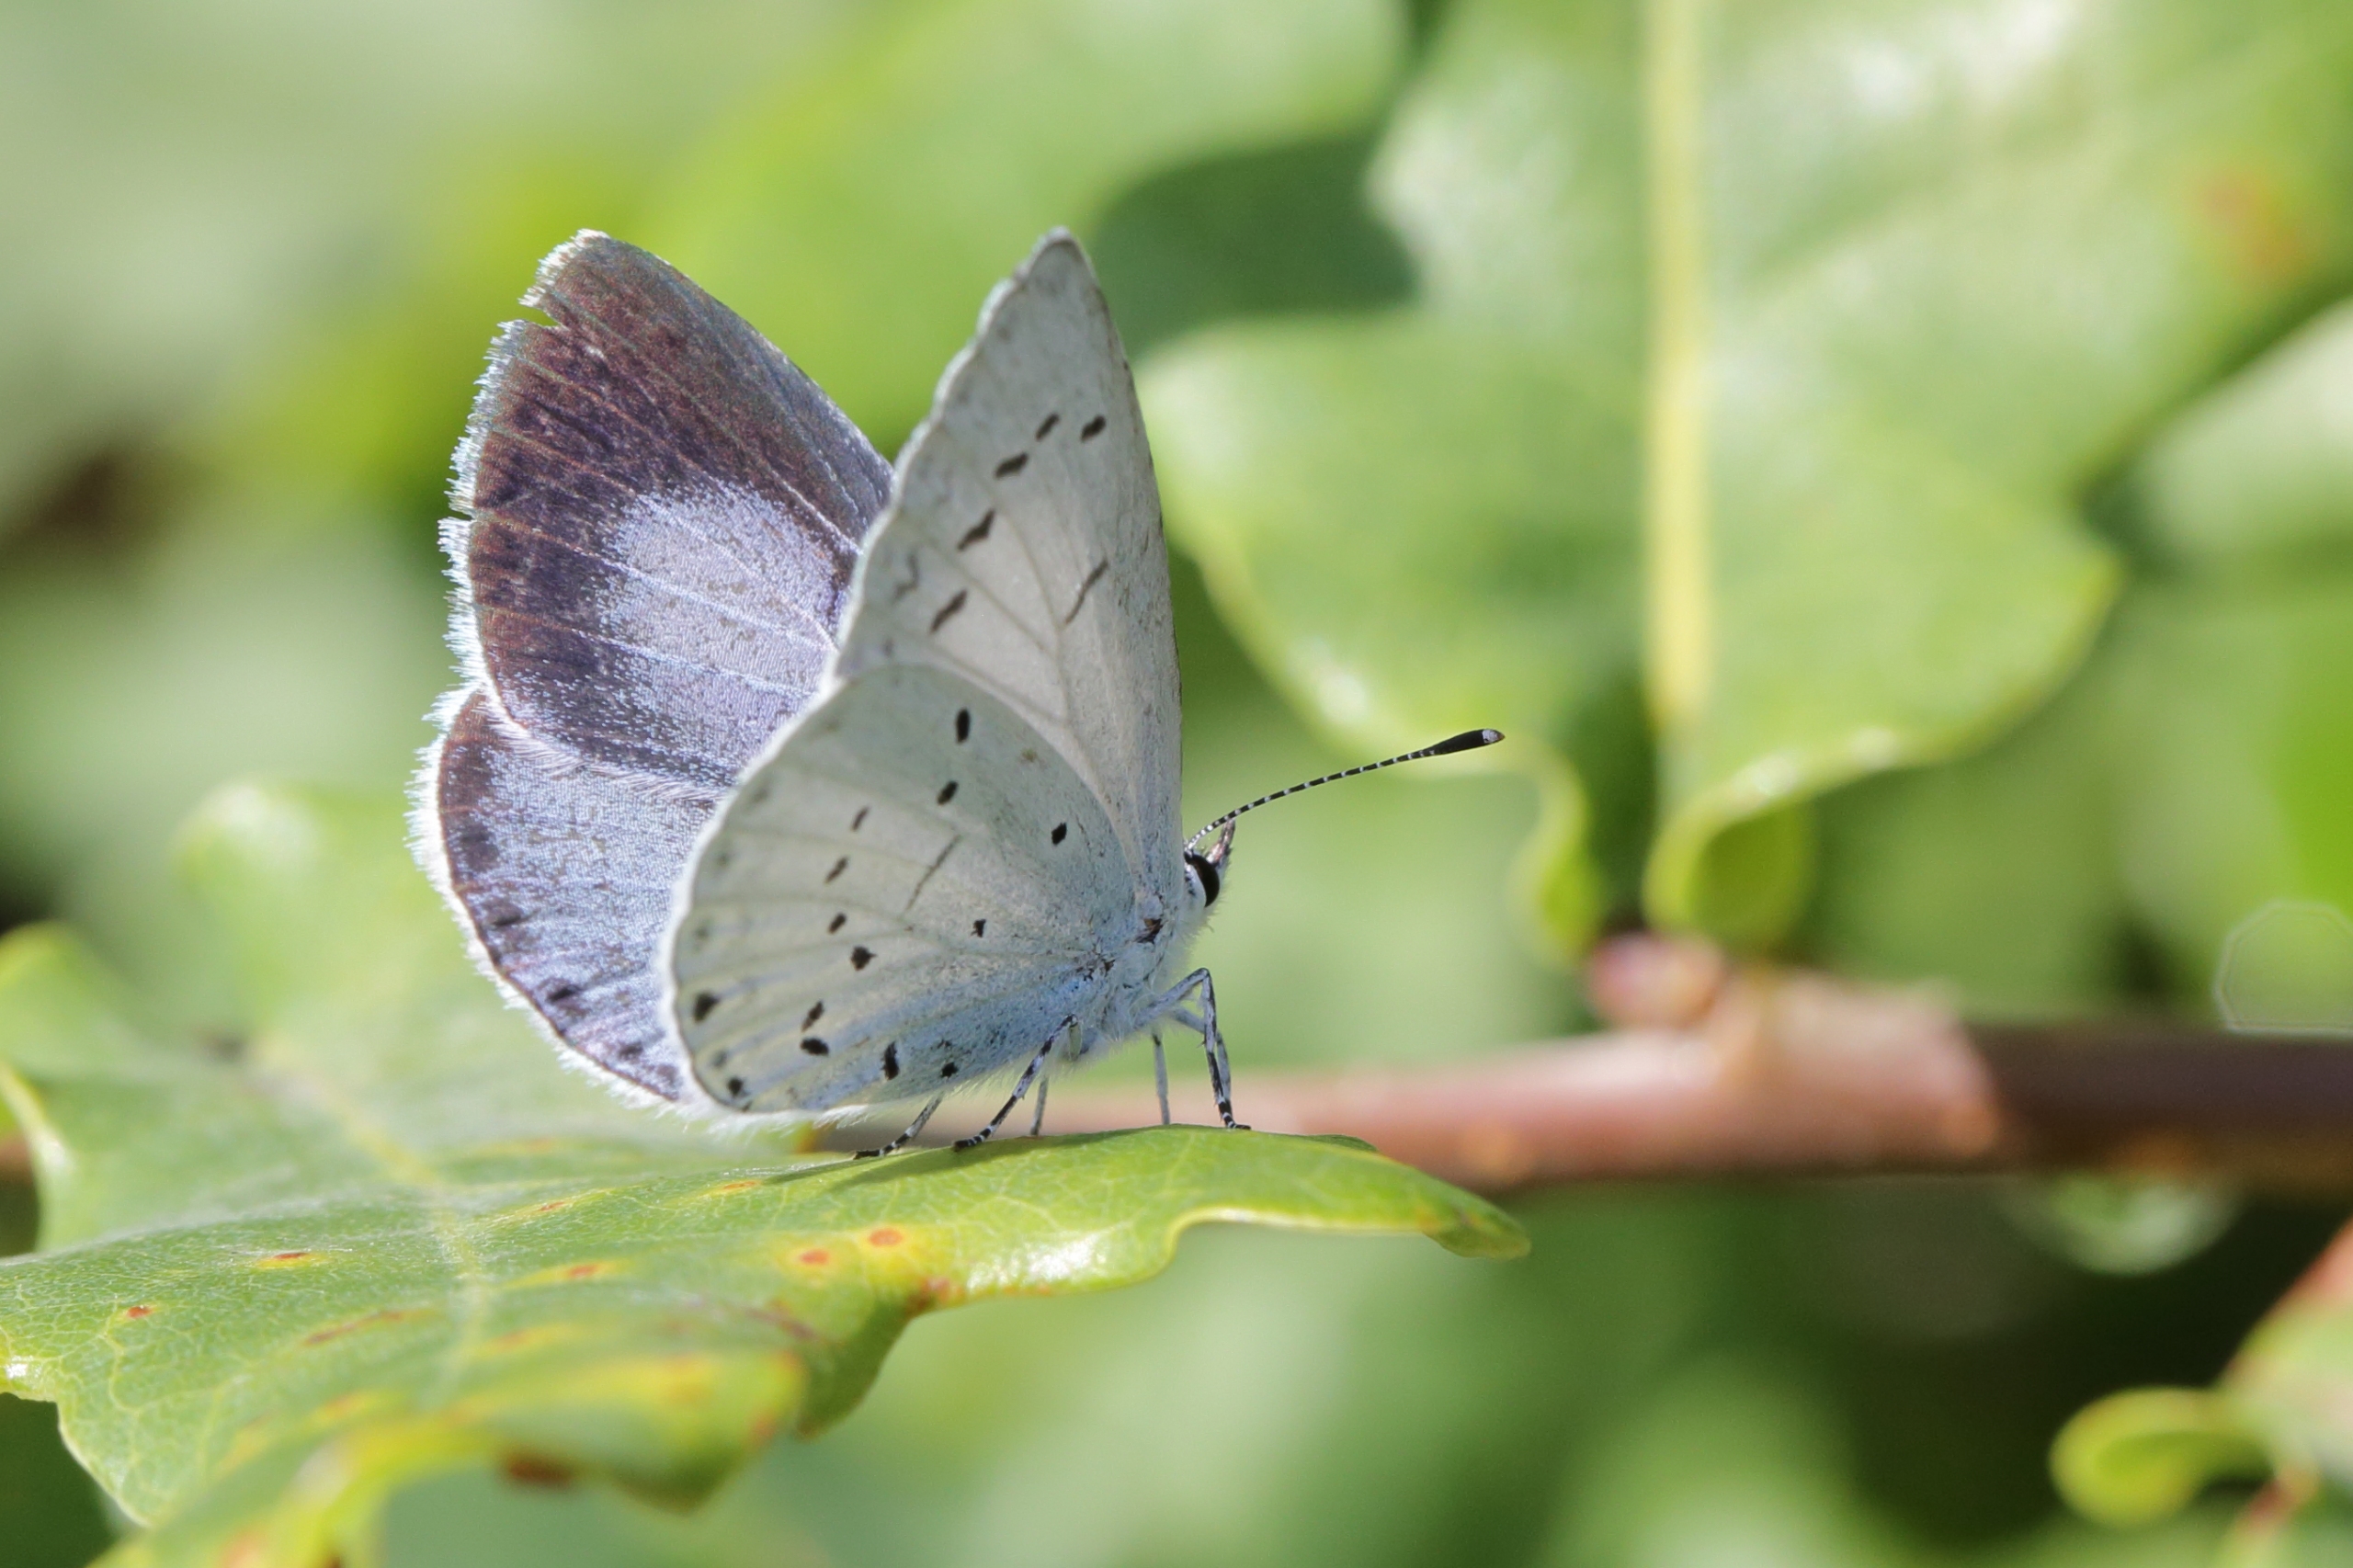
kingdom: Animalia
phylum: Arthropoda
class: Insecta
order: Lepidoptera
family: Lycaenidae
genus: Celastrina
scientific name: Celastrina argiolus
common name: Skovblåfugl
